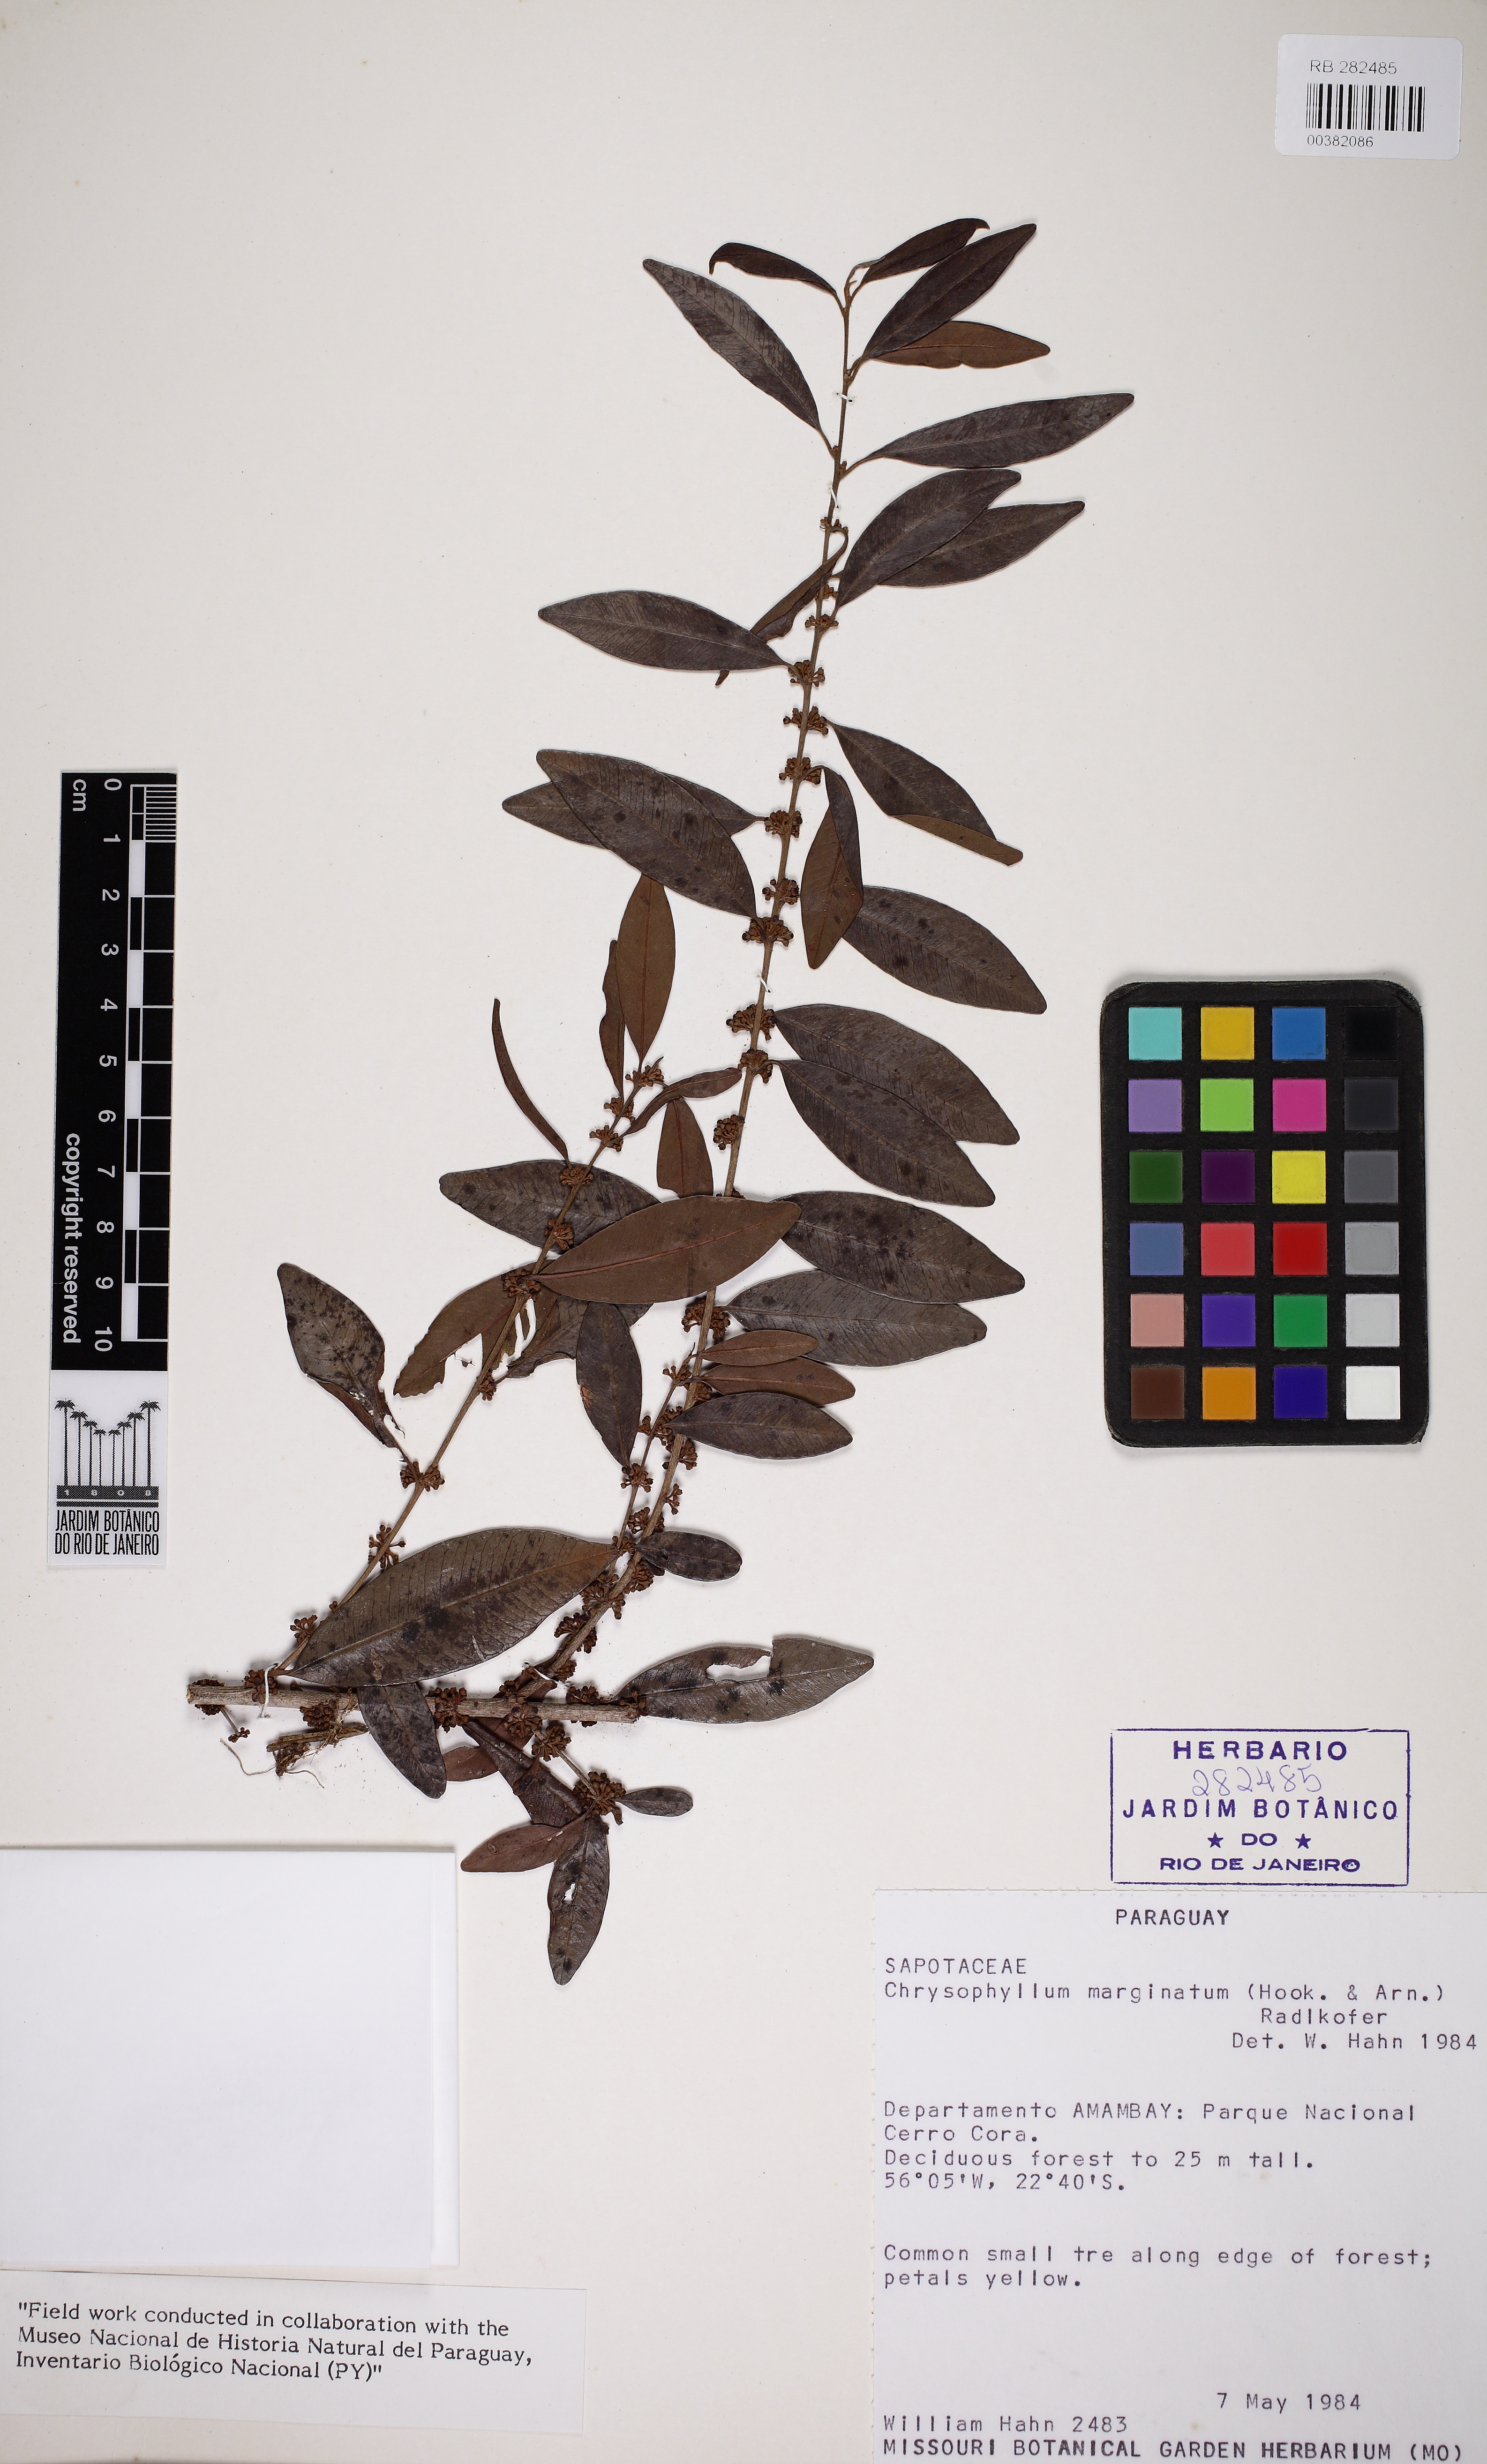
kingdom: Plantae
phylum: Tracheophyta
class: Magnoliopsida
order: Ericales
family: Sapotaceae
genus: Chrysophyllum
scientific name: Chrysophyllum marginatum
